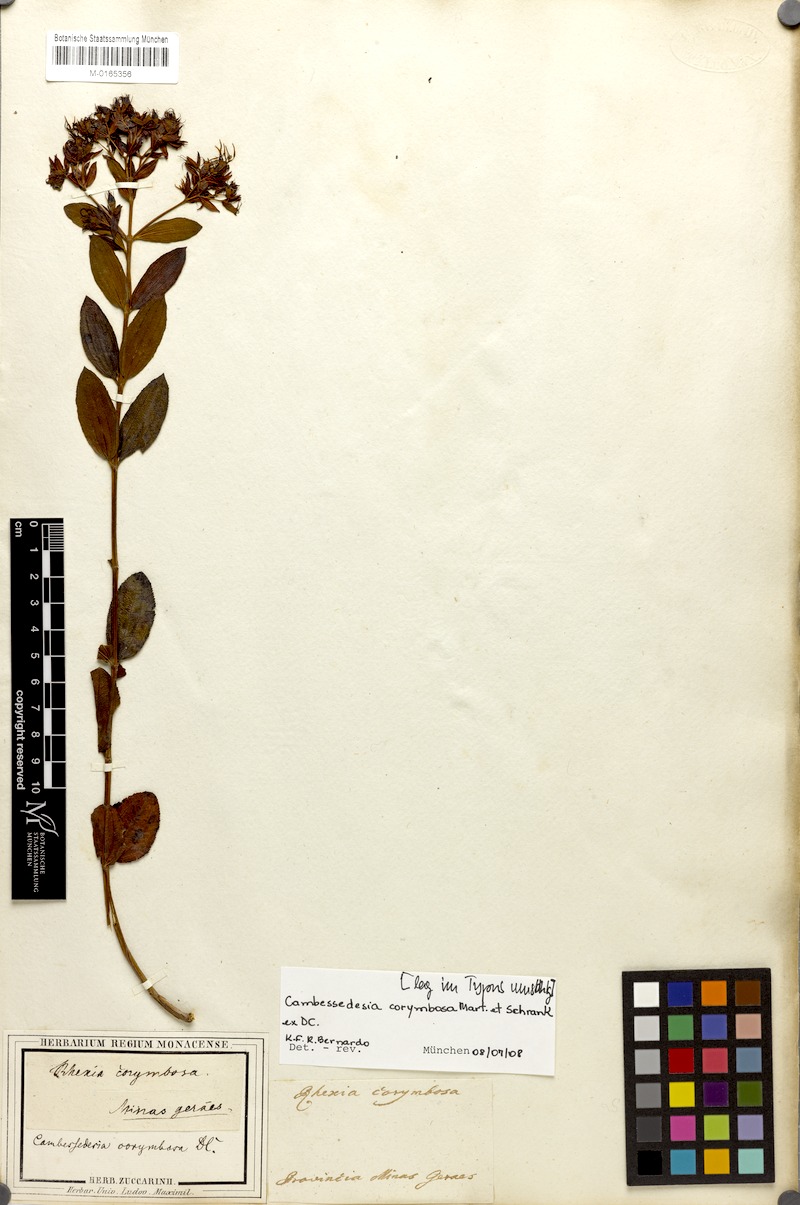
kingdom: Plantae
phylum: Tracheophyta
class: Magnoliopsida
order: Myrtales
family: Melastomataceae
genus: Cambessedesia
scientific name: Cambessedesia corymbosa
